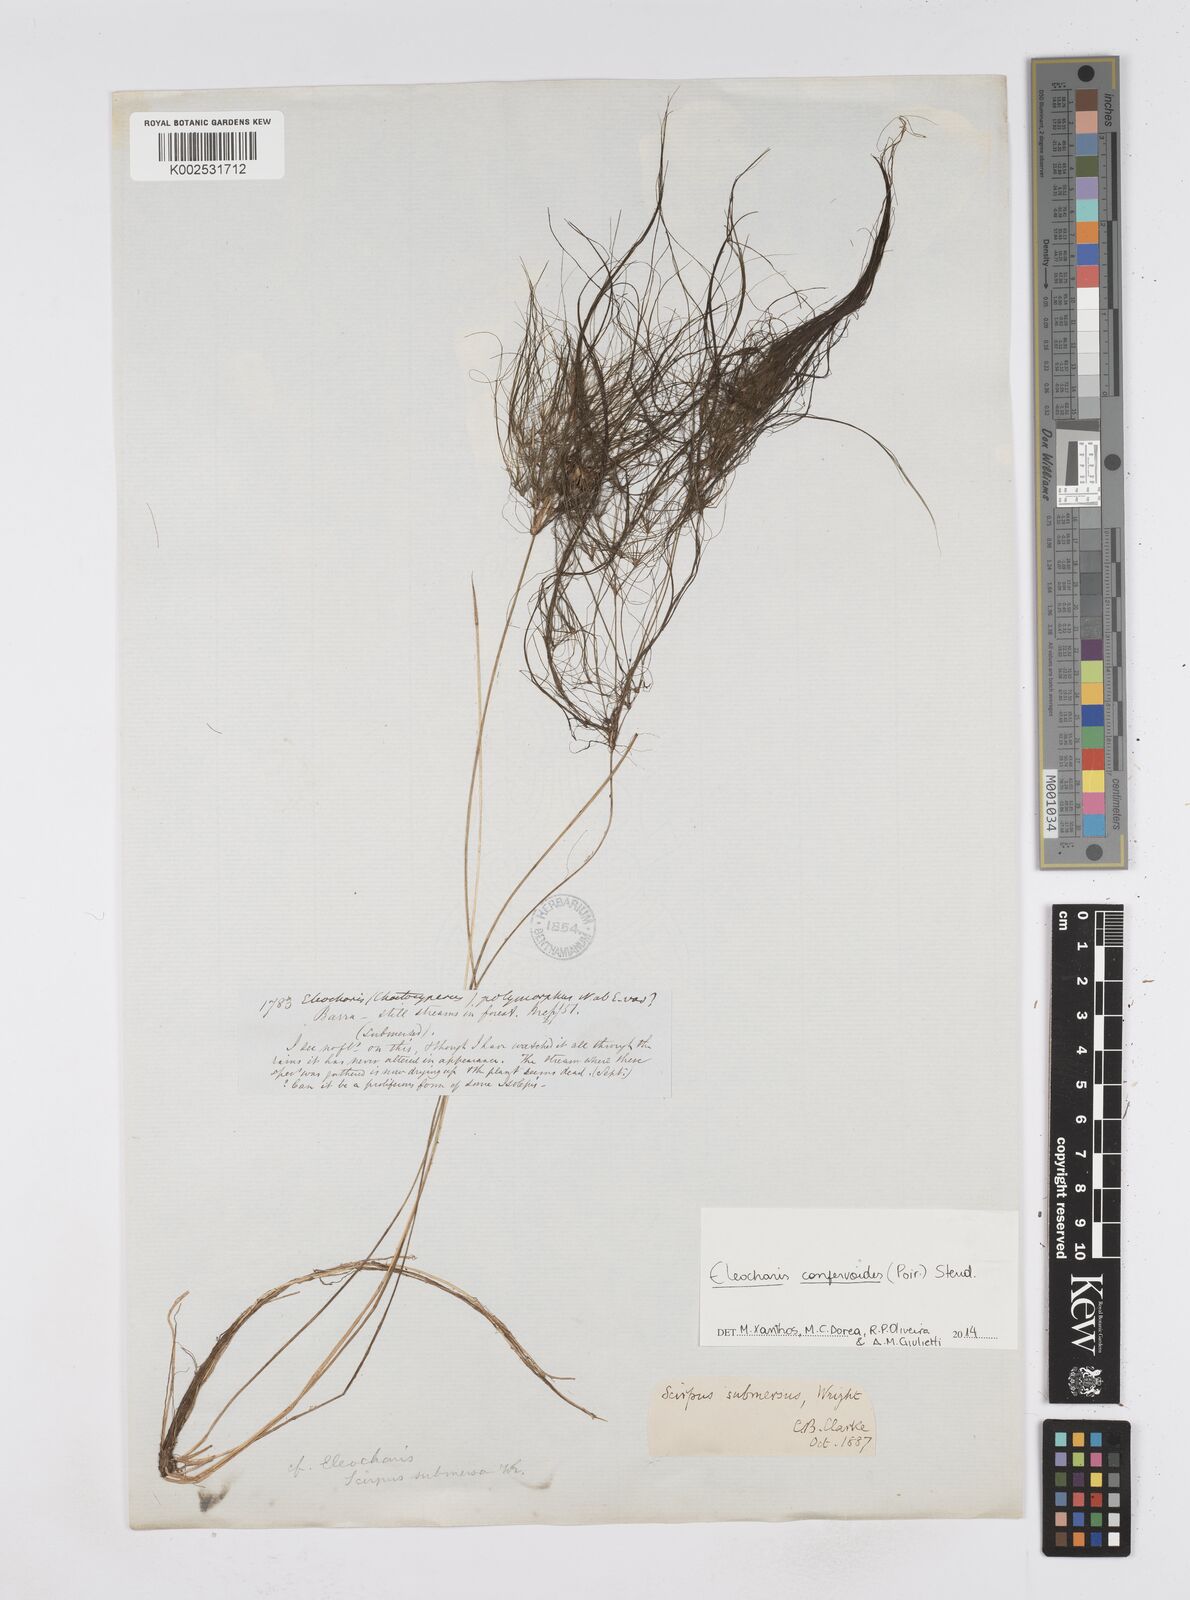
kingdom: Plantae
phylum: Tracheophyta
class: Liliopsida
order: Poales
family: Cyperaceae
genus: Eleocharis
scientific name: Eleocharis confervoides
